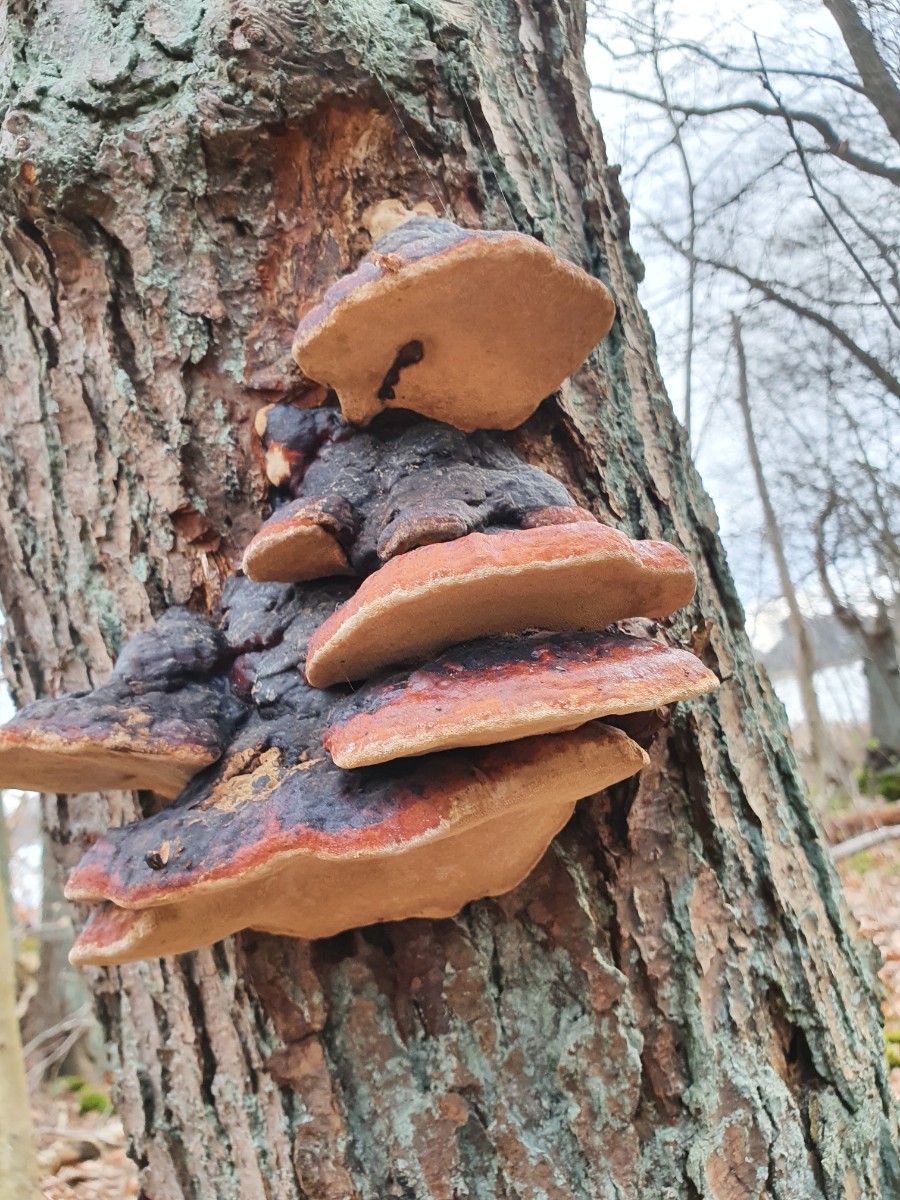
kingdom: Fungi
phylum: Basidiomycota
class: Agaricomycetes
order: Polyporales
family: Fomitopsidaceae
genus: Fomitopsis
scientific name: Fomitopsis pinicola
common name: randbæltet hovporesvamp
